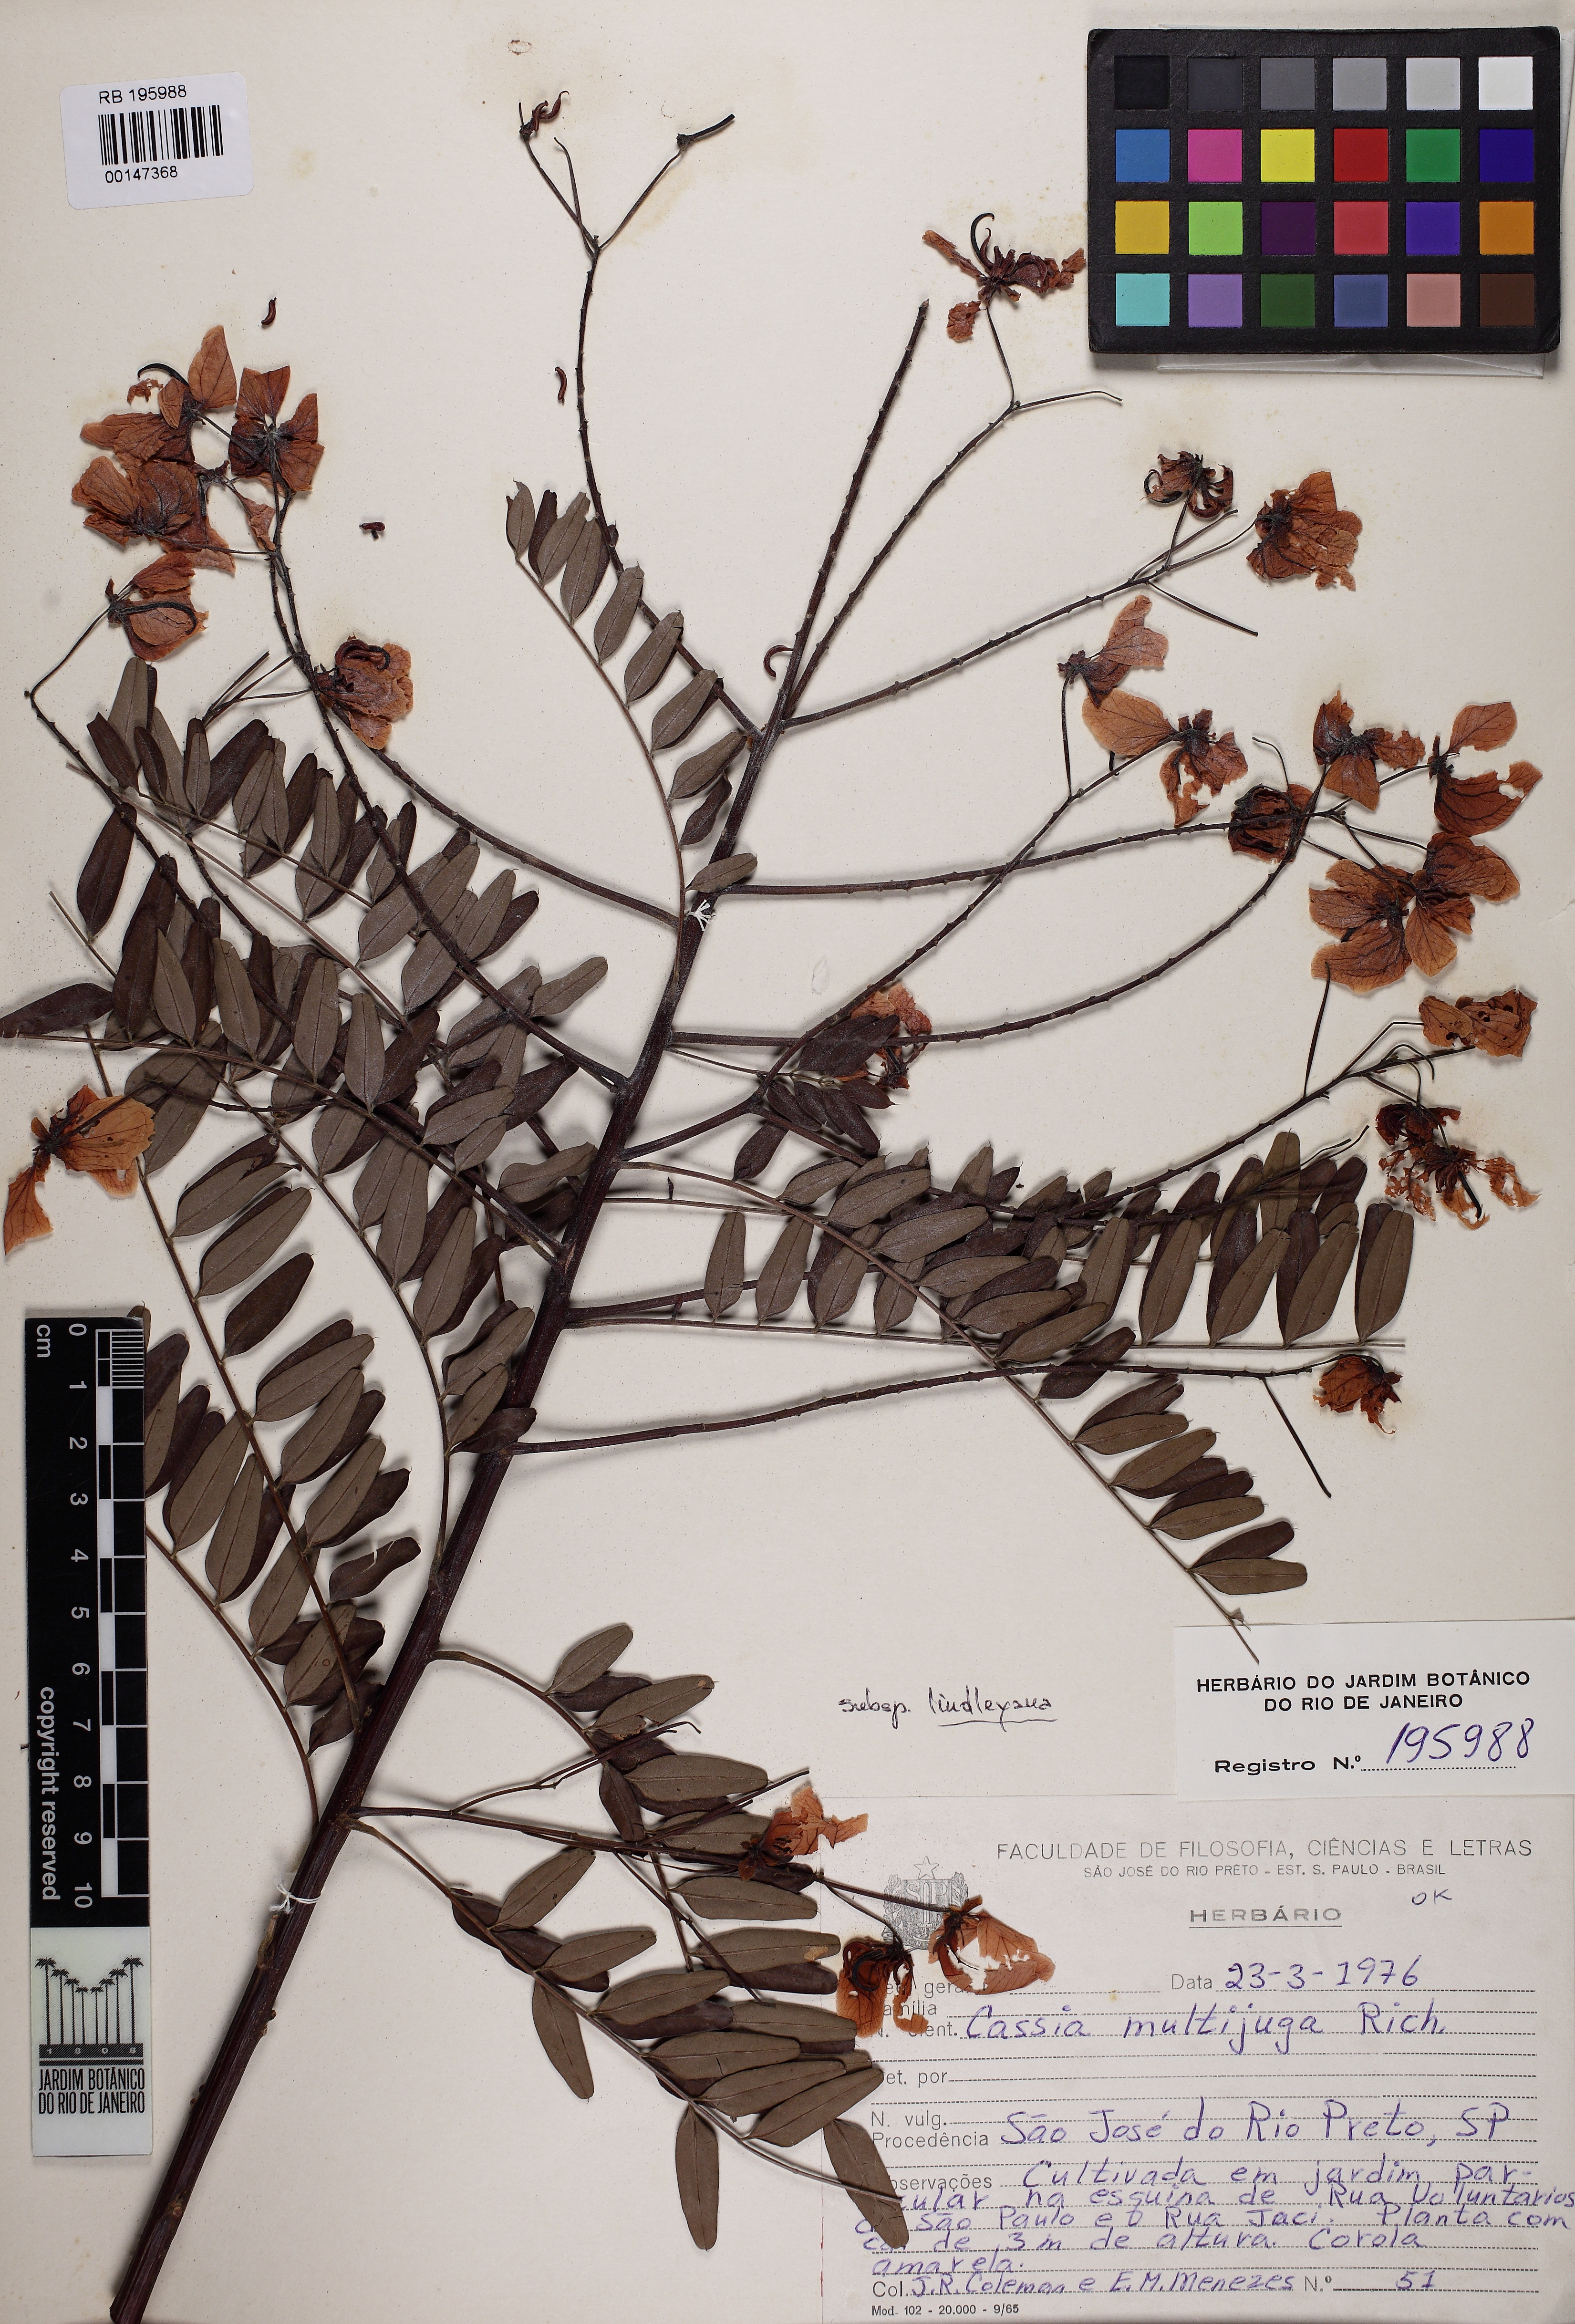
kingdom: Plantae
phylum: Tracheophyta
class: Magnoliopsida
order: Fabales
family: Fabaceae
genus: Senna
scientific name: Senna multijuga
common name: False sicklepod
